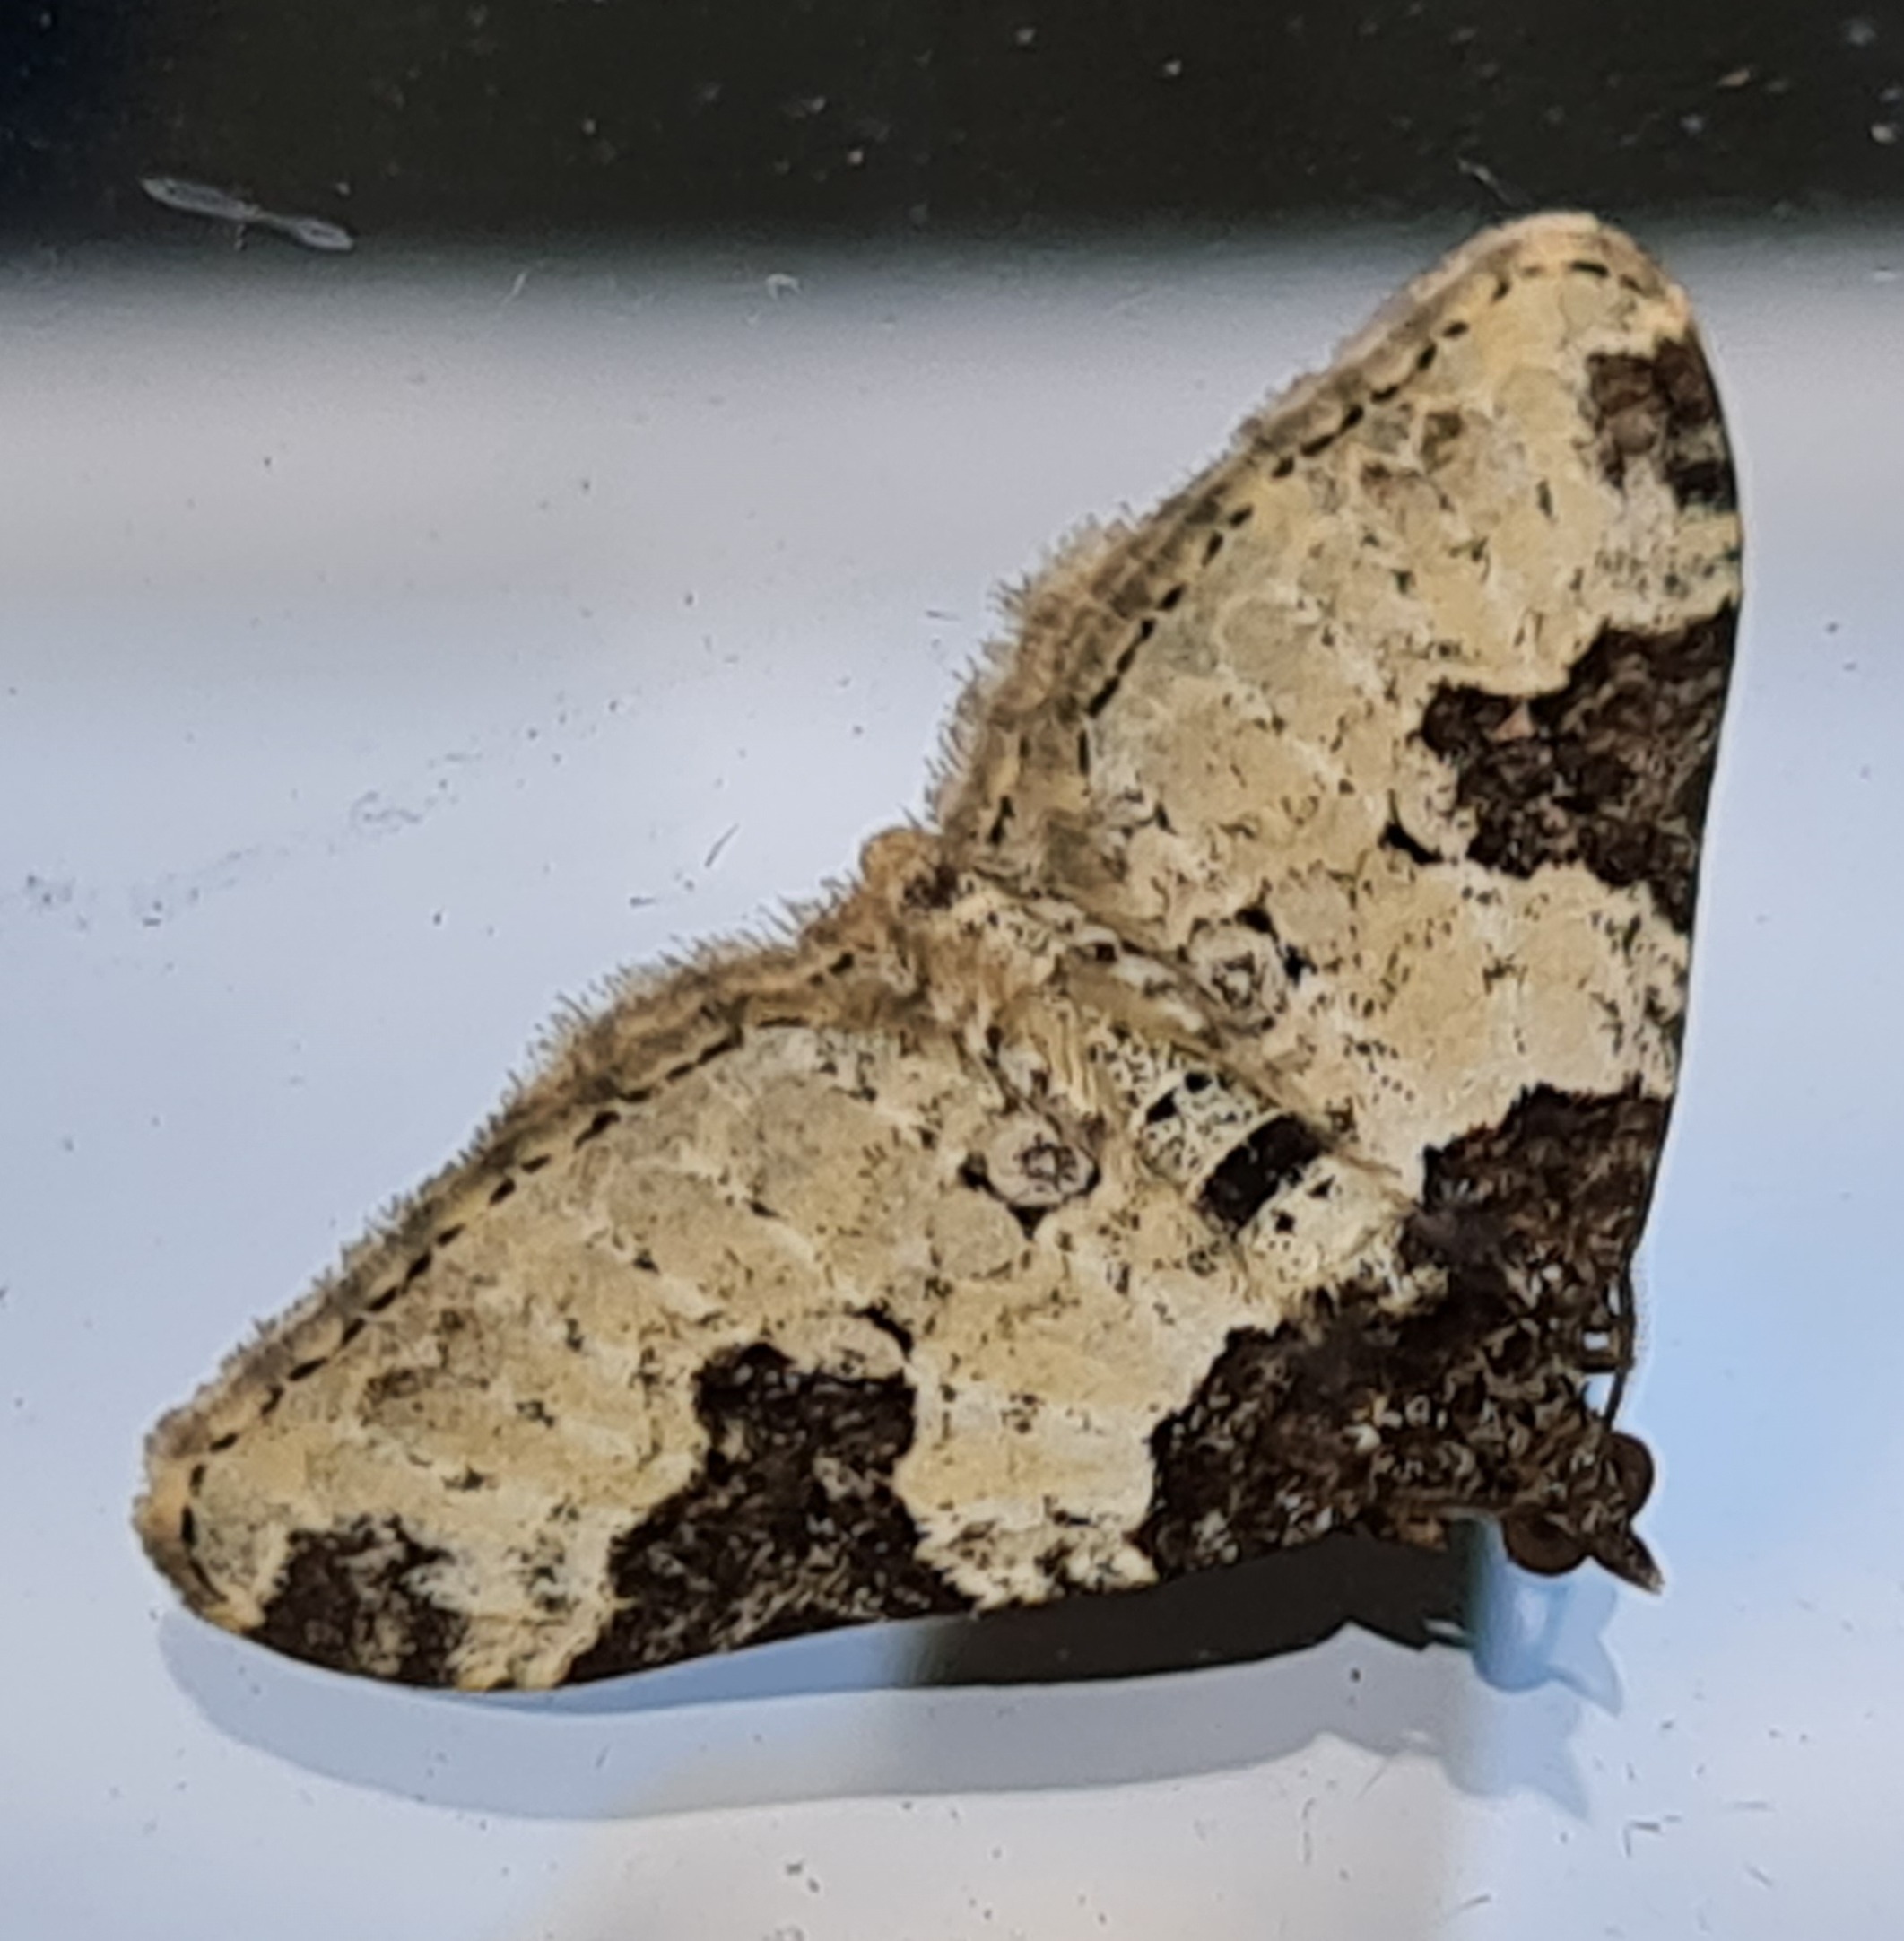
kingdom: Animalia
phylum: Arthropoda
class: Insecta
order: Lepidoptera
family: Geometridae
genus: Xanthorhoe
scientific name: Xanthorhoe fluctuata
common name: Sortbæltet bladmåler
